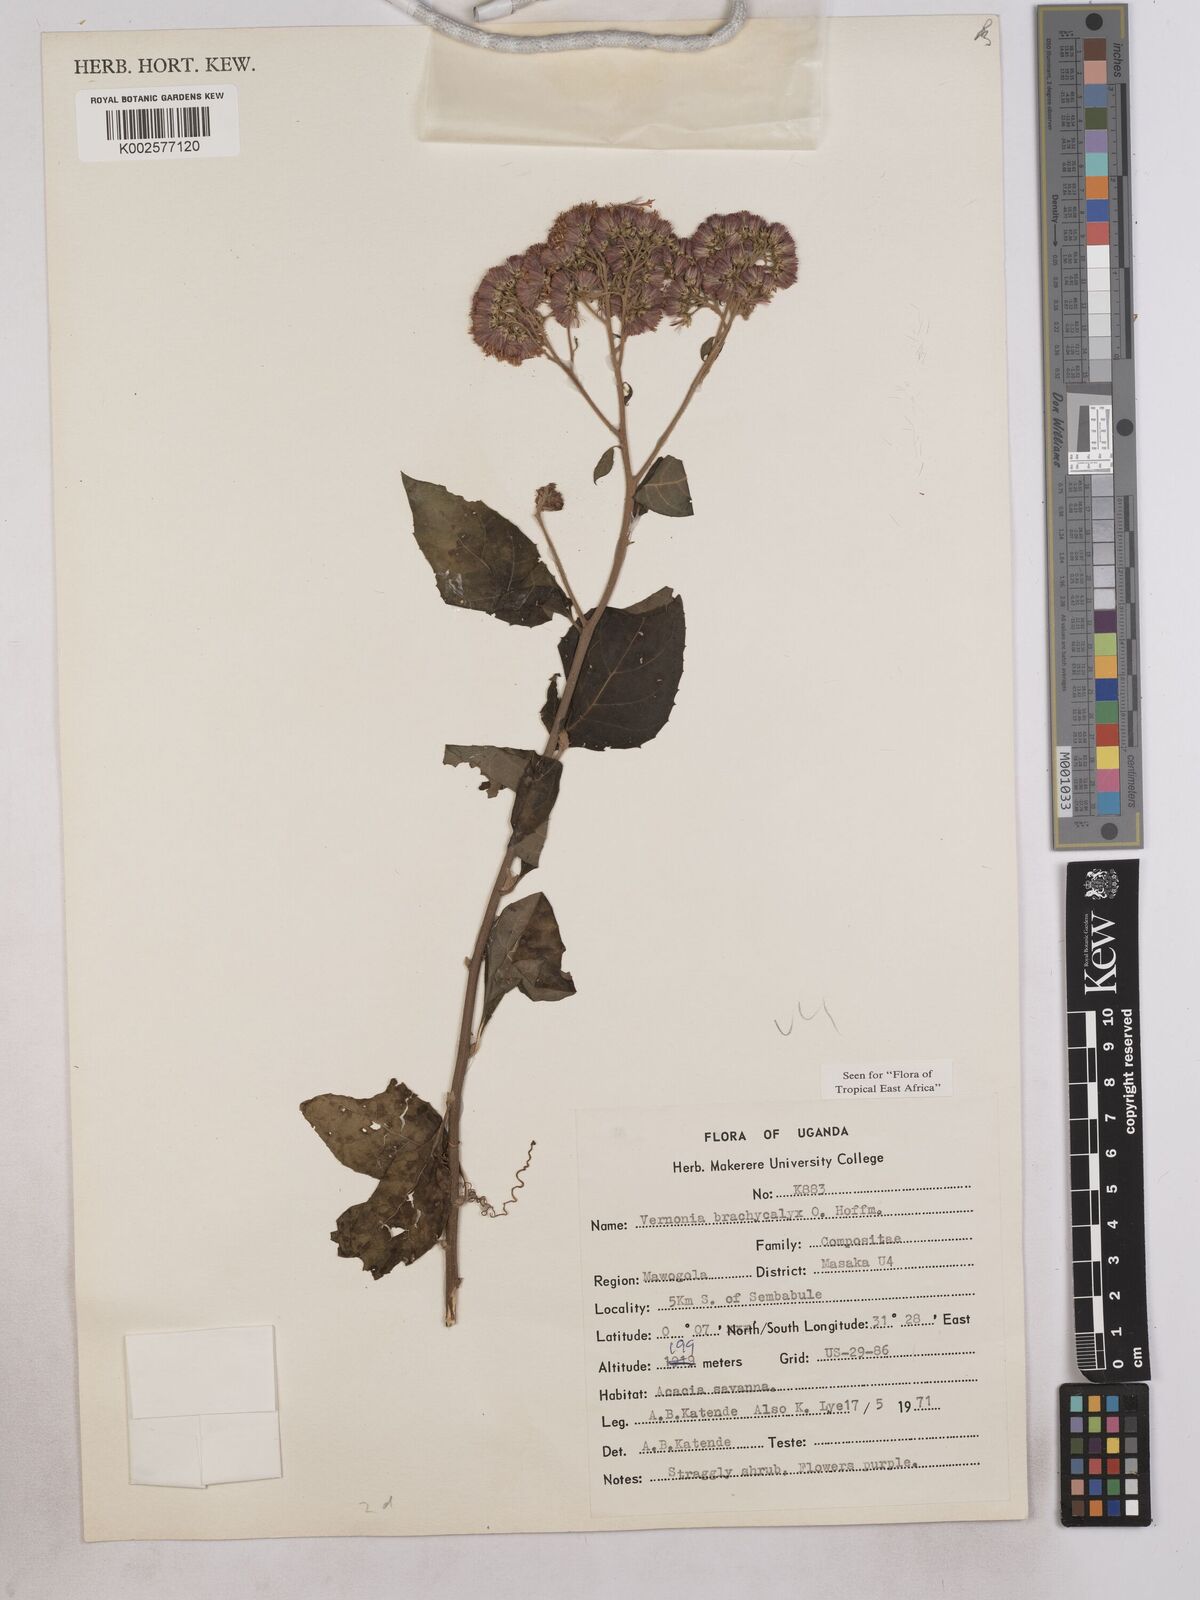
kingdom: Plantae
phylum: Tracheophyta
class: Magnoliopsida
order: Asterales
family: Asteraceae
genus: Hoffmannanthus
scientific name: Hoffmannanthus abbotianus
